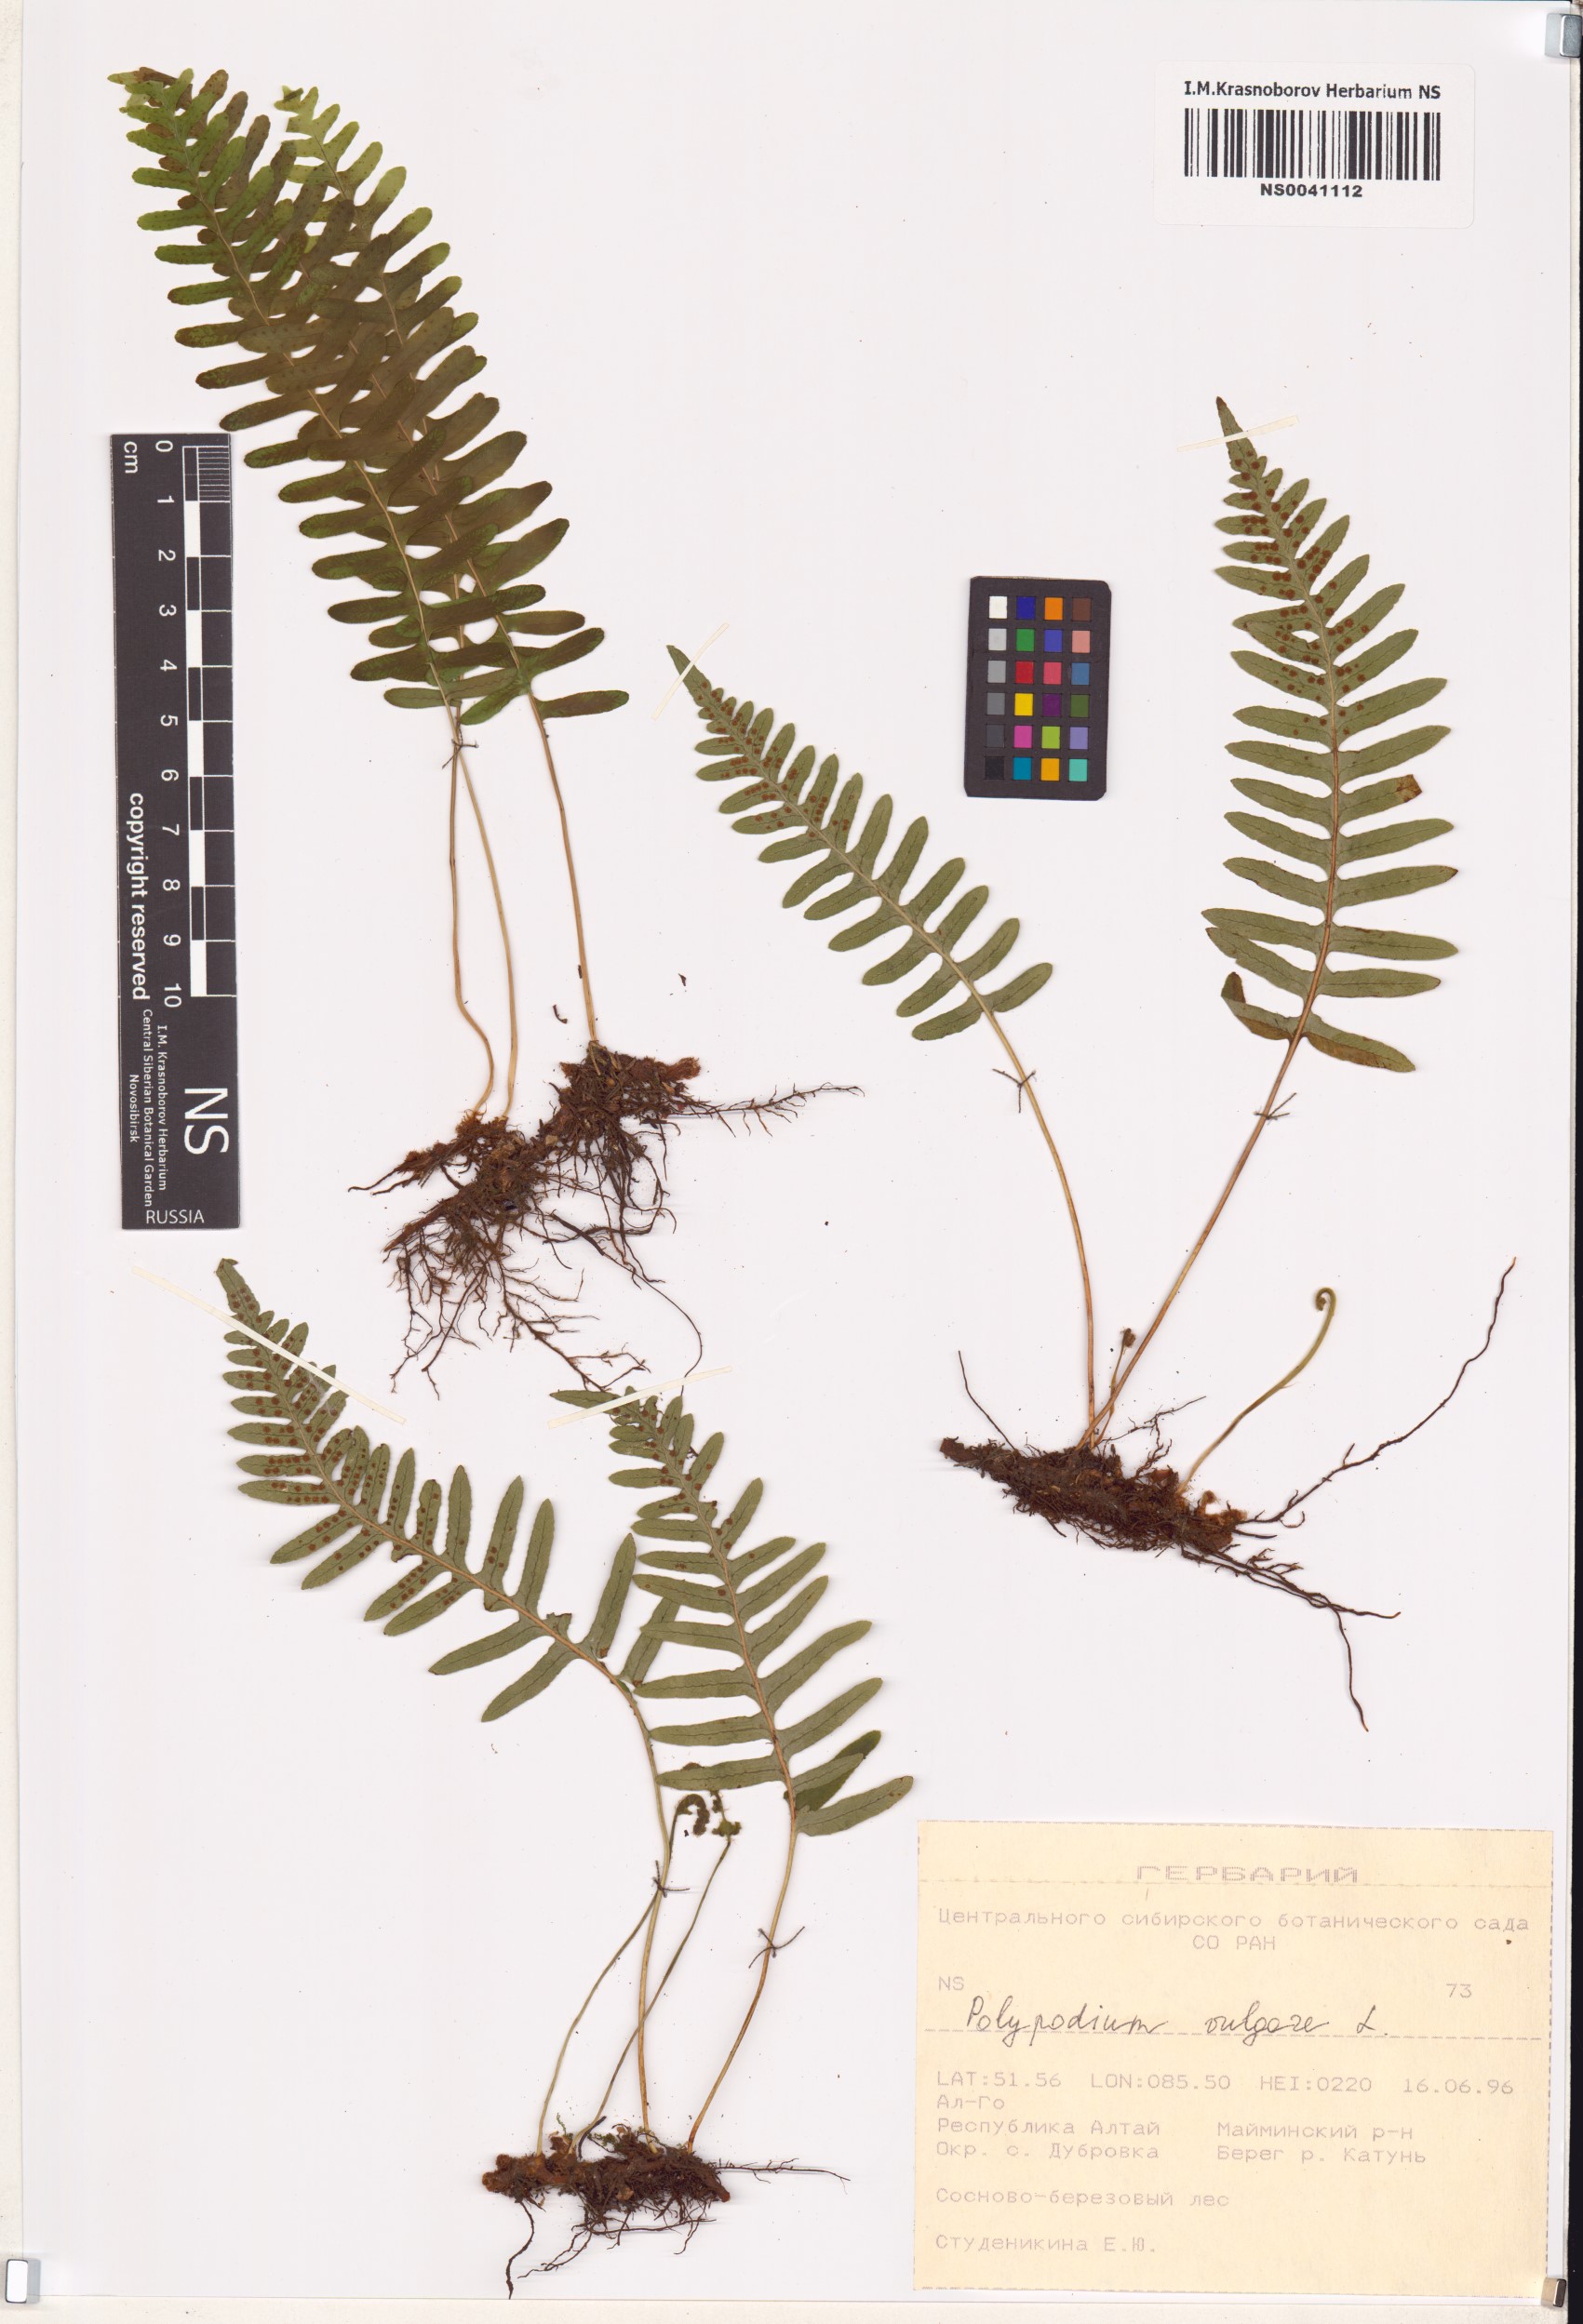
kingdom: Plantae
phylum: Tracheophyta
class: Polypodiopsida
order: Polypodiales
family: Polypodiaceae
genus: Polypodium
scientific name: Polypodium vulgare
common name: Common polypody
